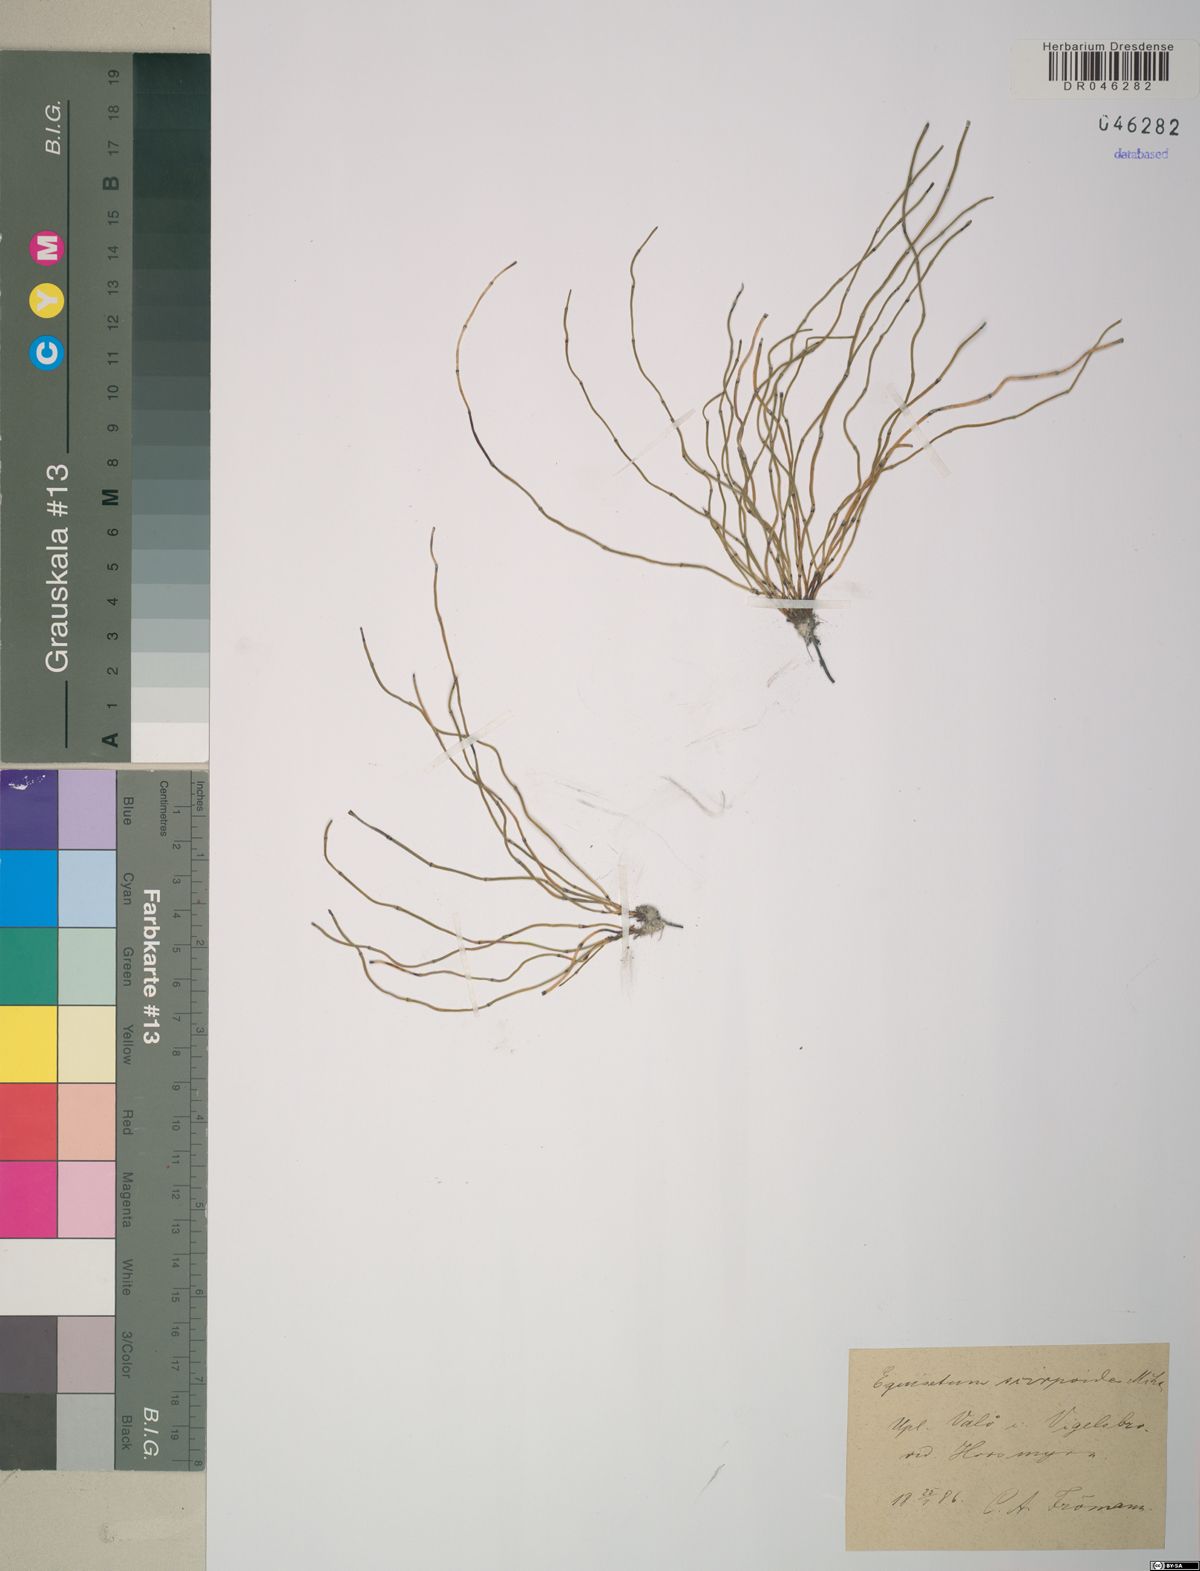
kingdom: Plantae
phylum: Tracheophyta
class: Polypodiopsida
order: Equisetales
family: Equisetaceae
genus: Equisetum
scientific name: Equisetum scirpoides
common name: Delicate horsetail
